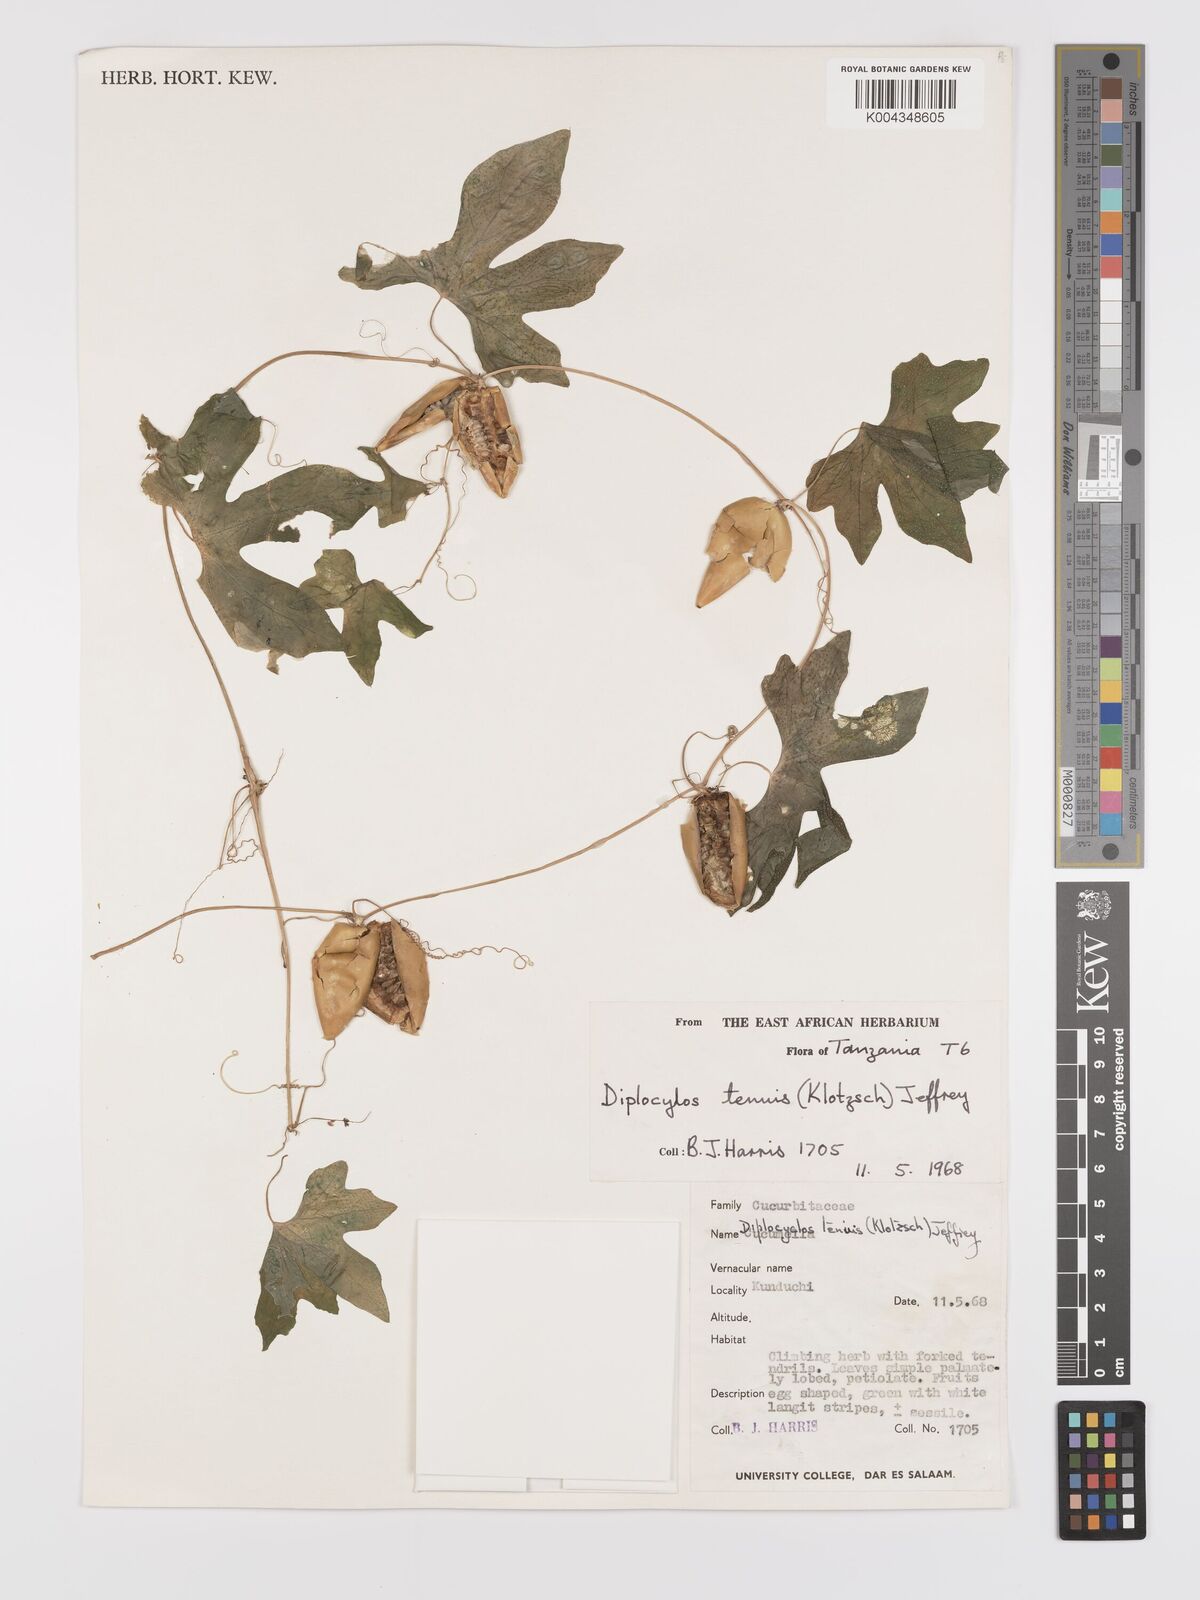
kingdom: Plantae
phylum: Tracheophyta
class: Magnoliopsida
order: Cucurbitales
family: Cucurbitaceae
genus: Diplocyclos
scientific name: Diplocyclos tenuis
